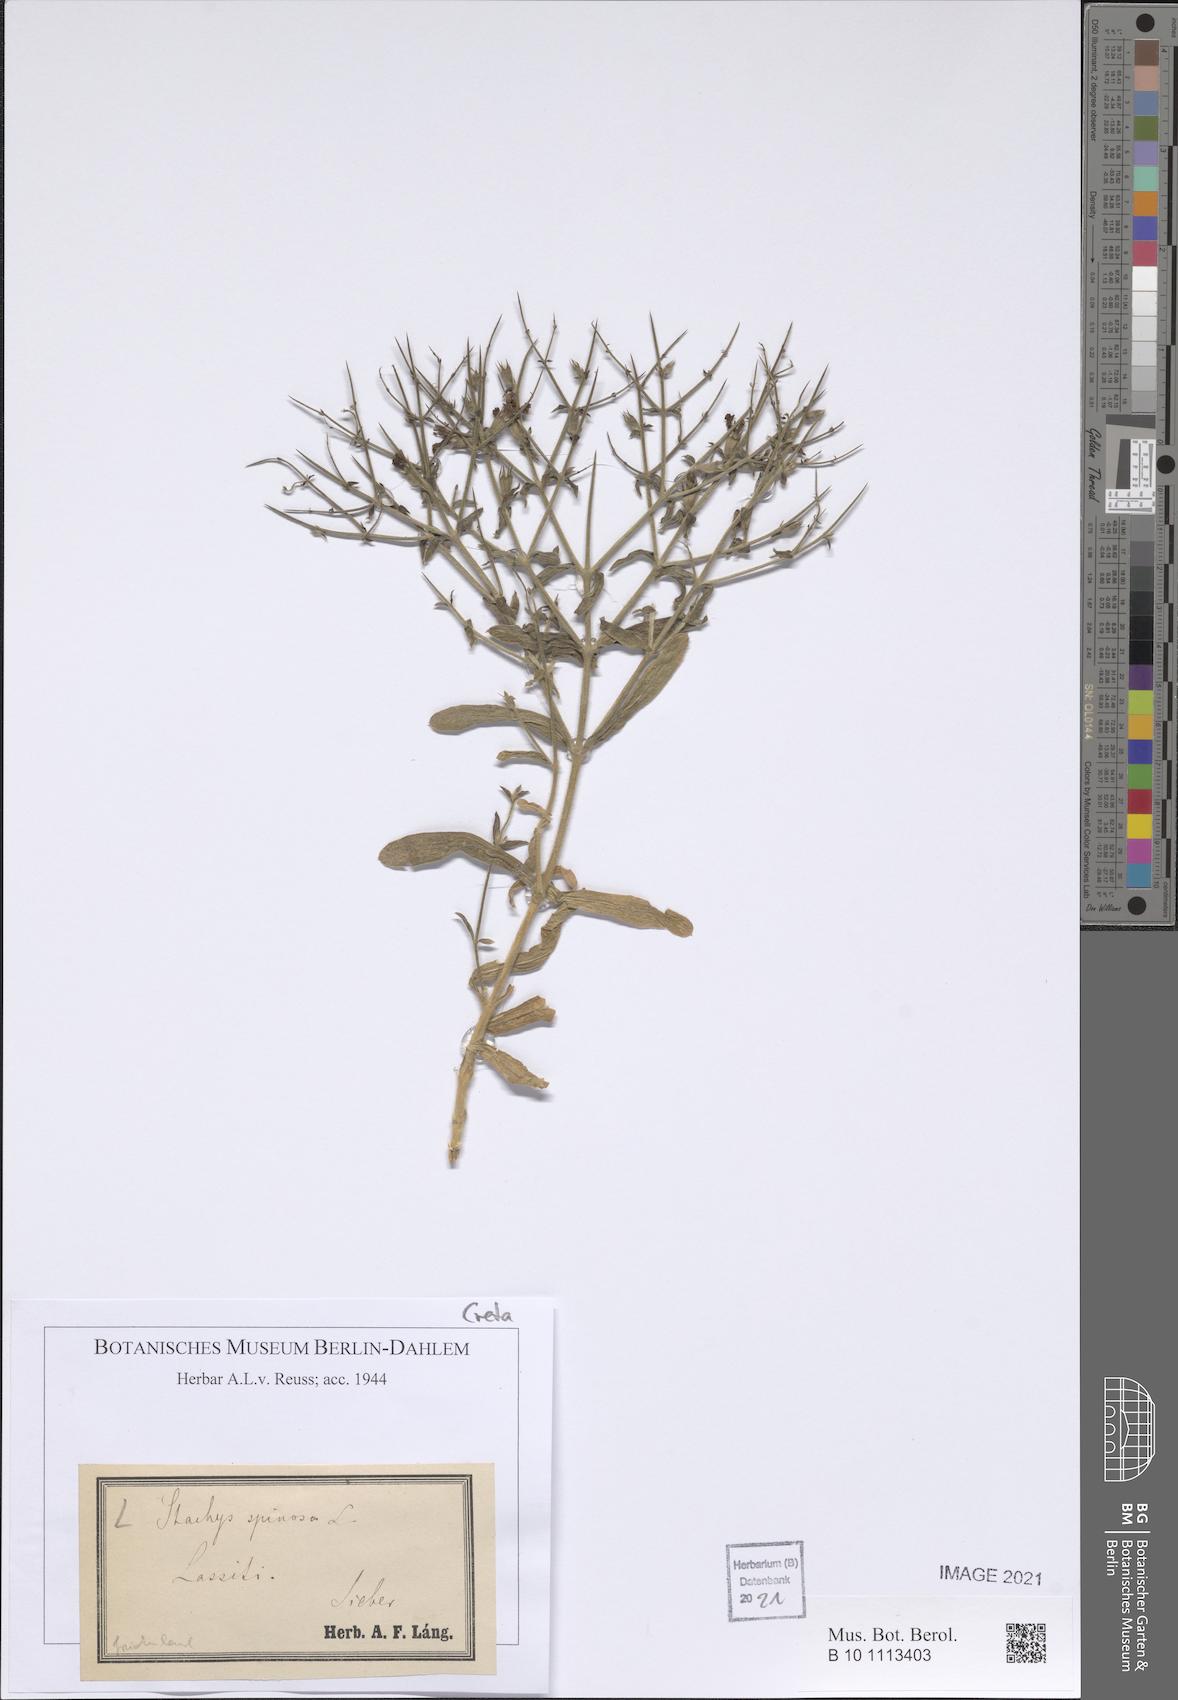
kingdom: Plantae
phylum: Tracheophyta
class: Magnoliopsida
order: Lamiales
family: Lamiaceae
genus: Stachys
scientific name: Stachys spinosa
